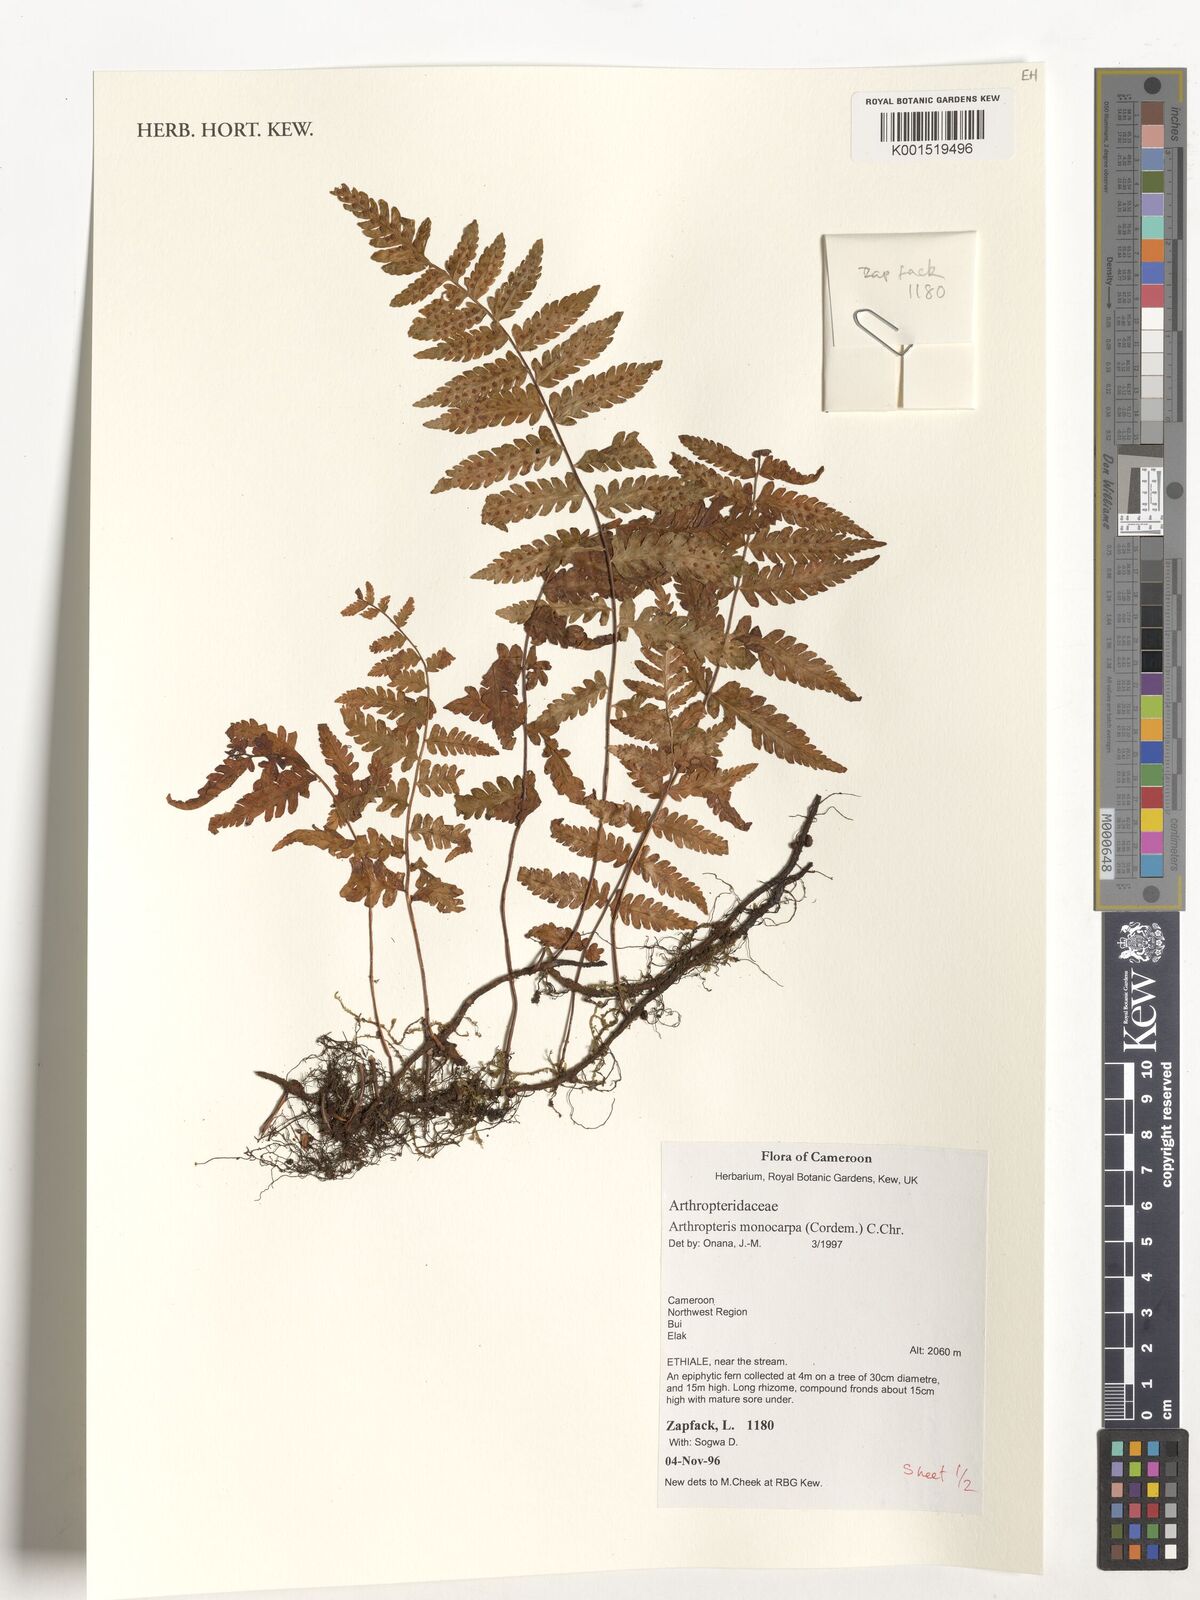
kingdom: Plantae
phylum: Tracheophyta
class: Polypodiopsida
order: Polypodiales
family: Tectariaceae
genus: Arthropteris
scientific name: Arthropteris monocarpa
